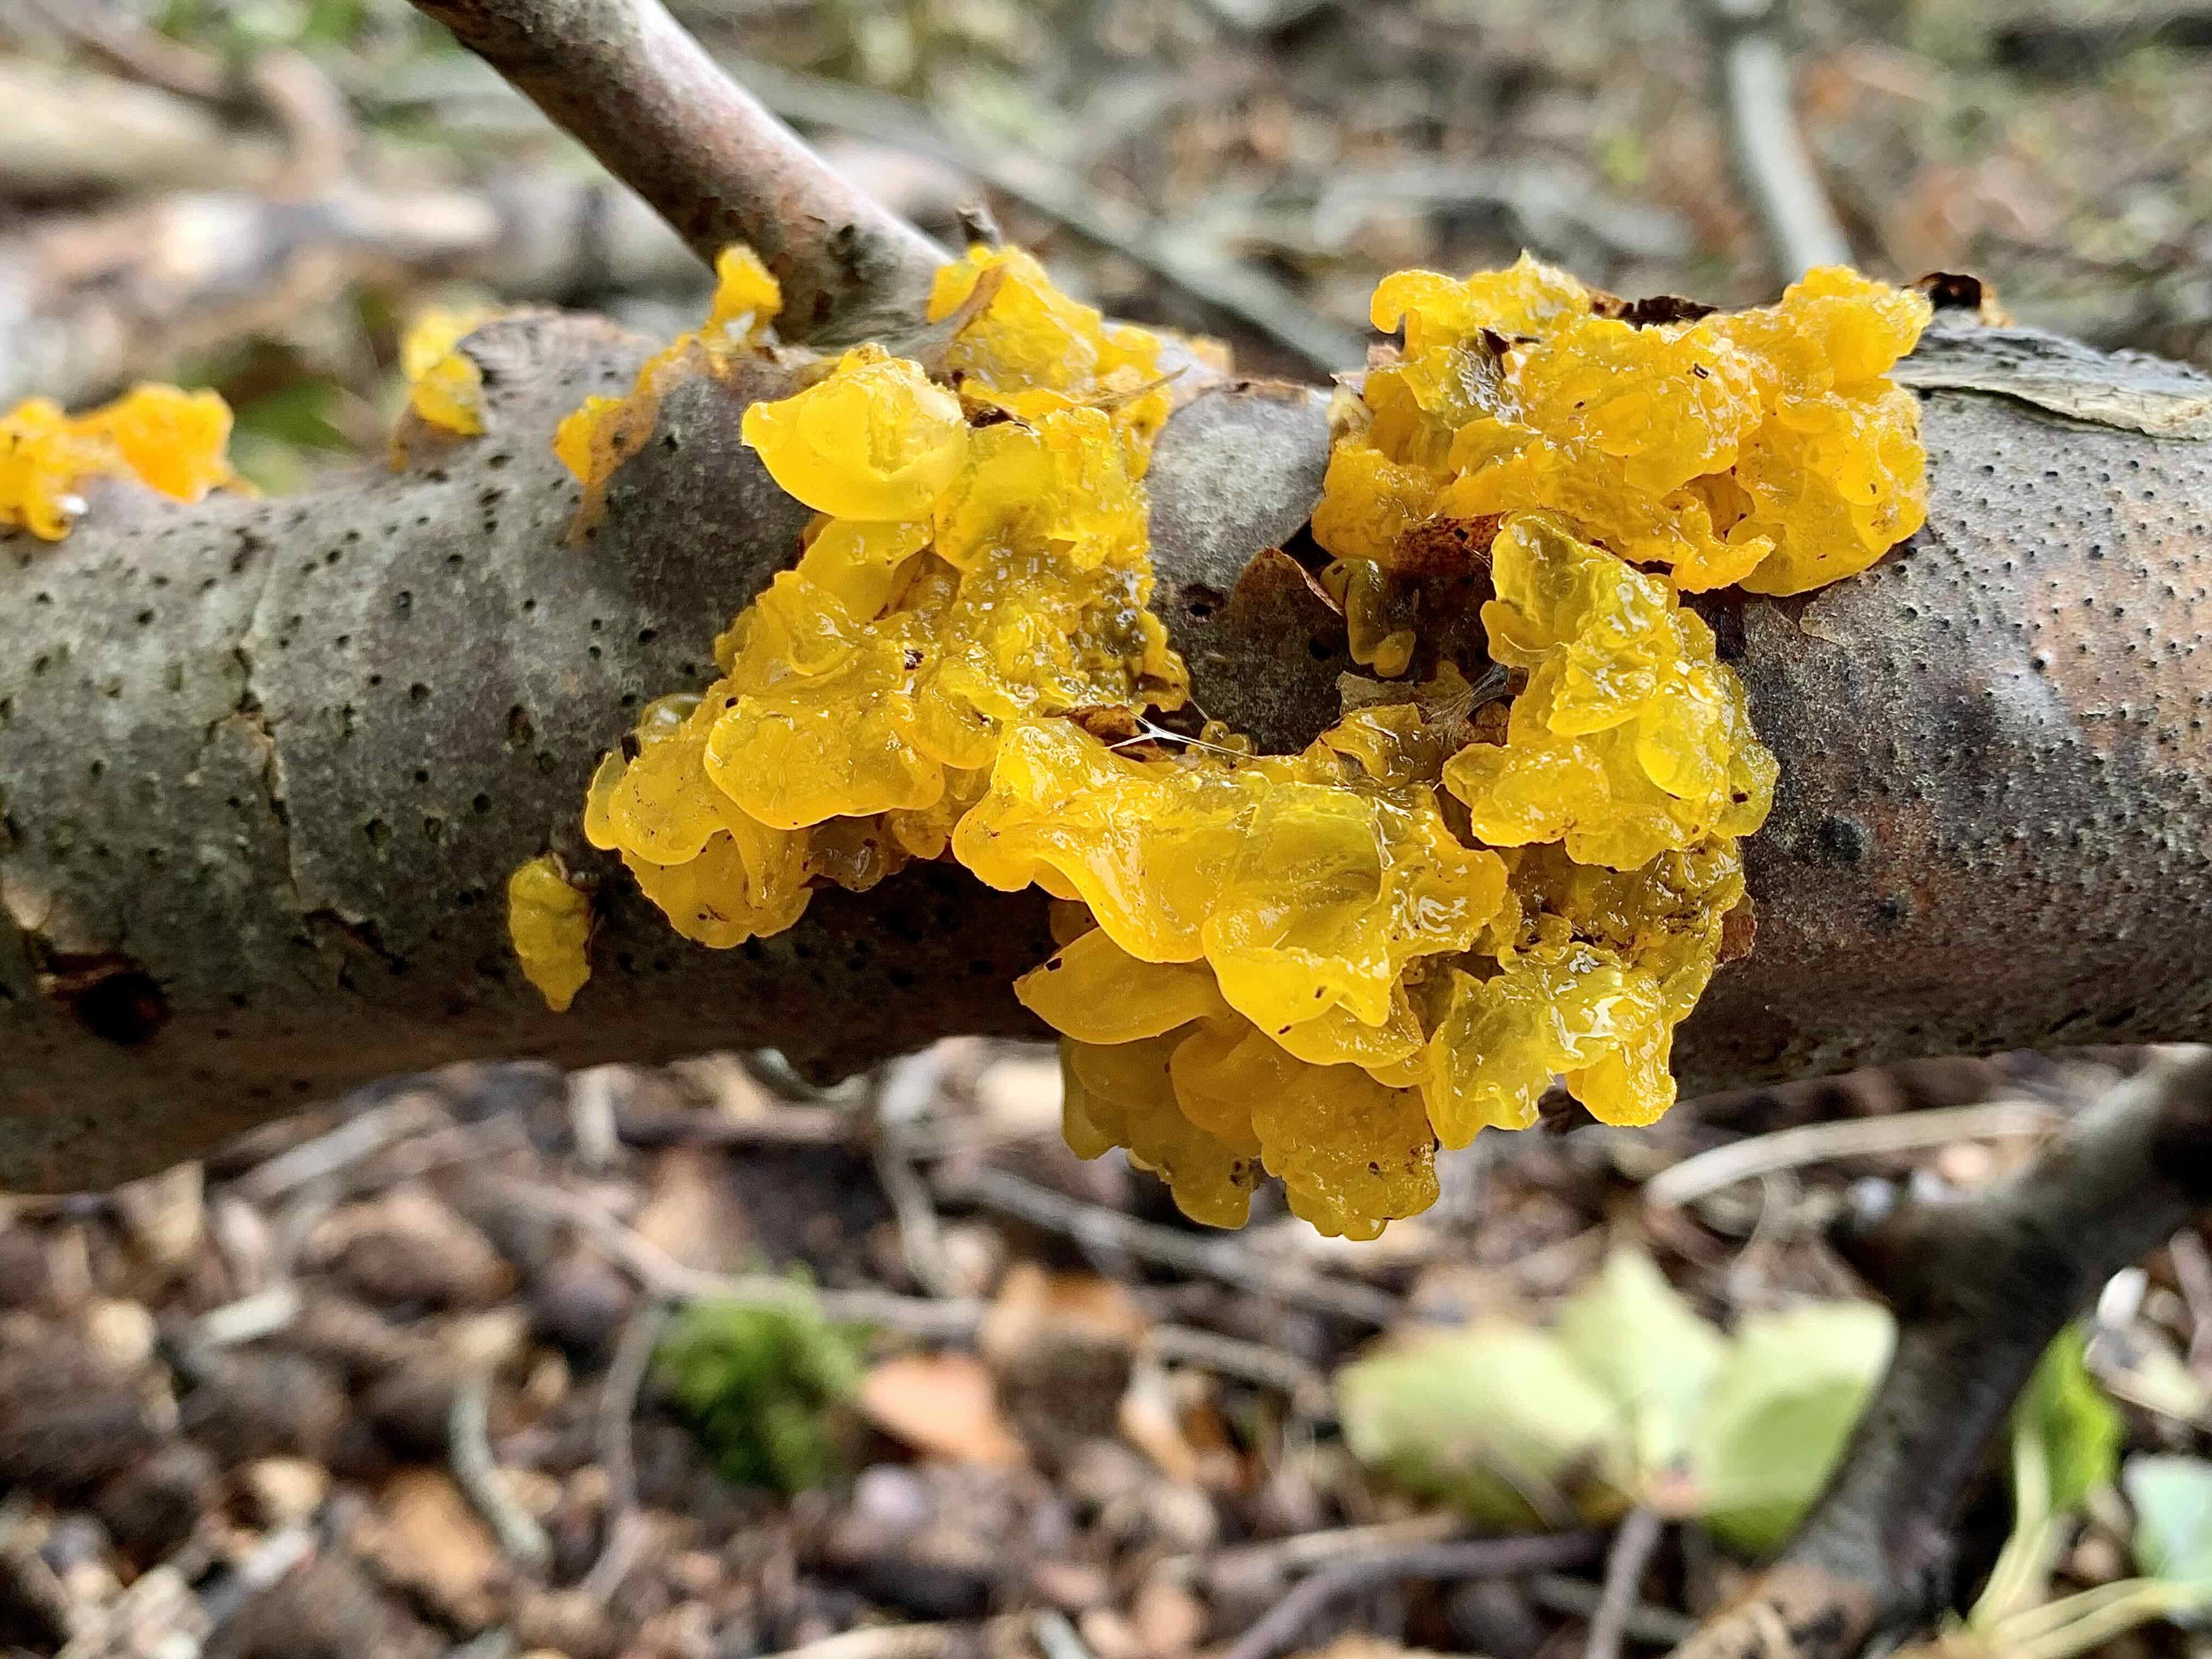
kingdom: Fungi
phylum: Basidiomycota
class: Tremellomycetes
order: Tremellales
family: Tremellaceae
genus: Tremella
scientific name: Tremella mesenterica
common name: gul bævresvamp
